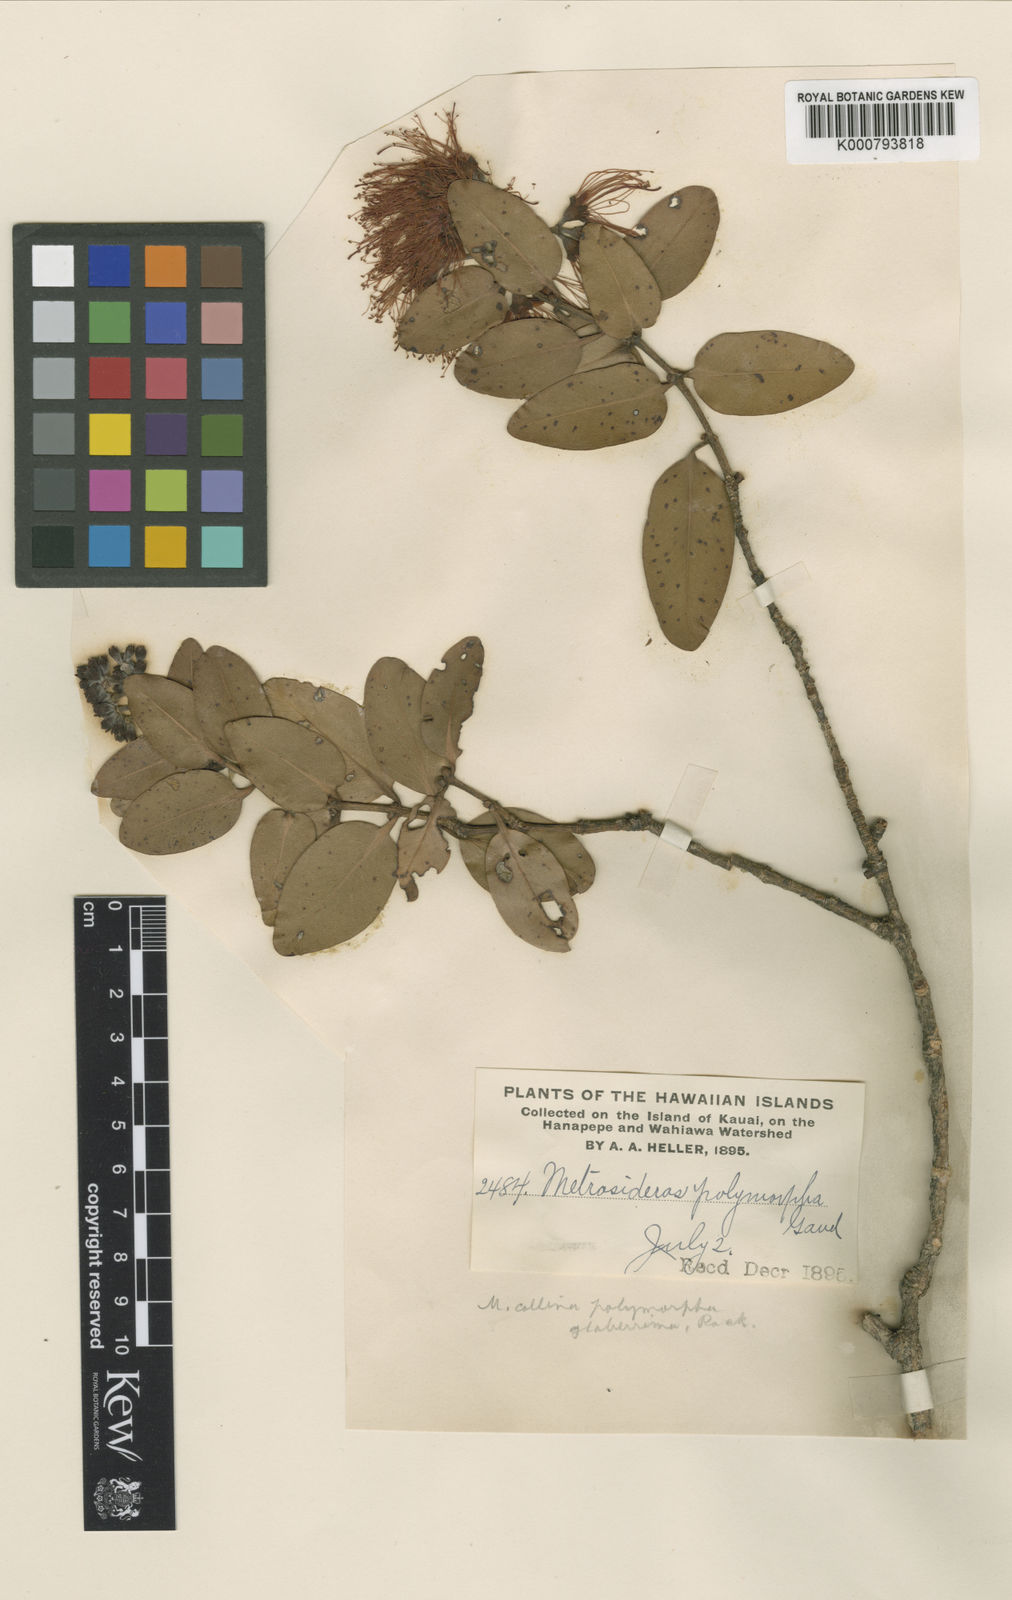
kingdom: Plantae
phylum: Tracheophyta
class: Magnoliopsida
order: Myrtales
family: Myrtaceae
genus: Metrosideros
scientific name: Metrosideros polymorpha
